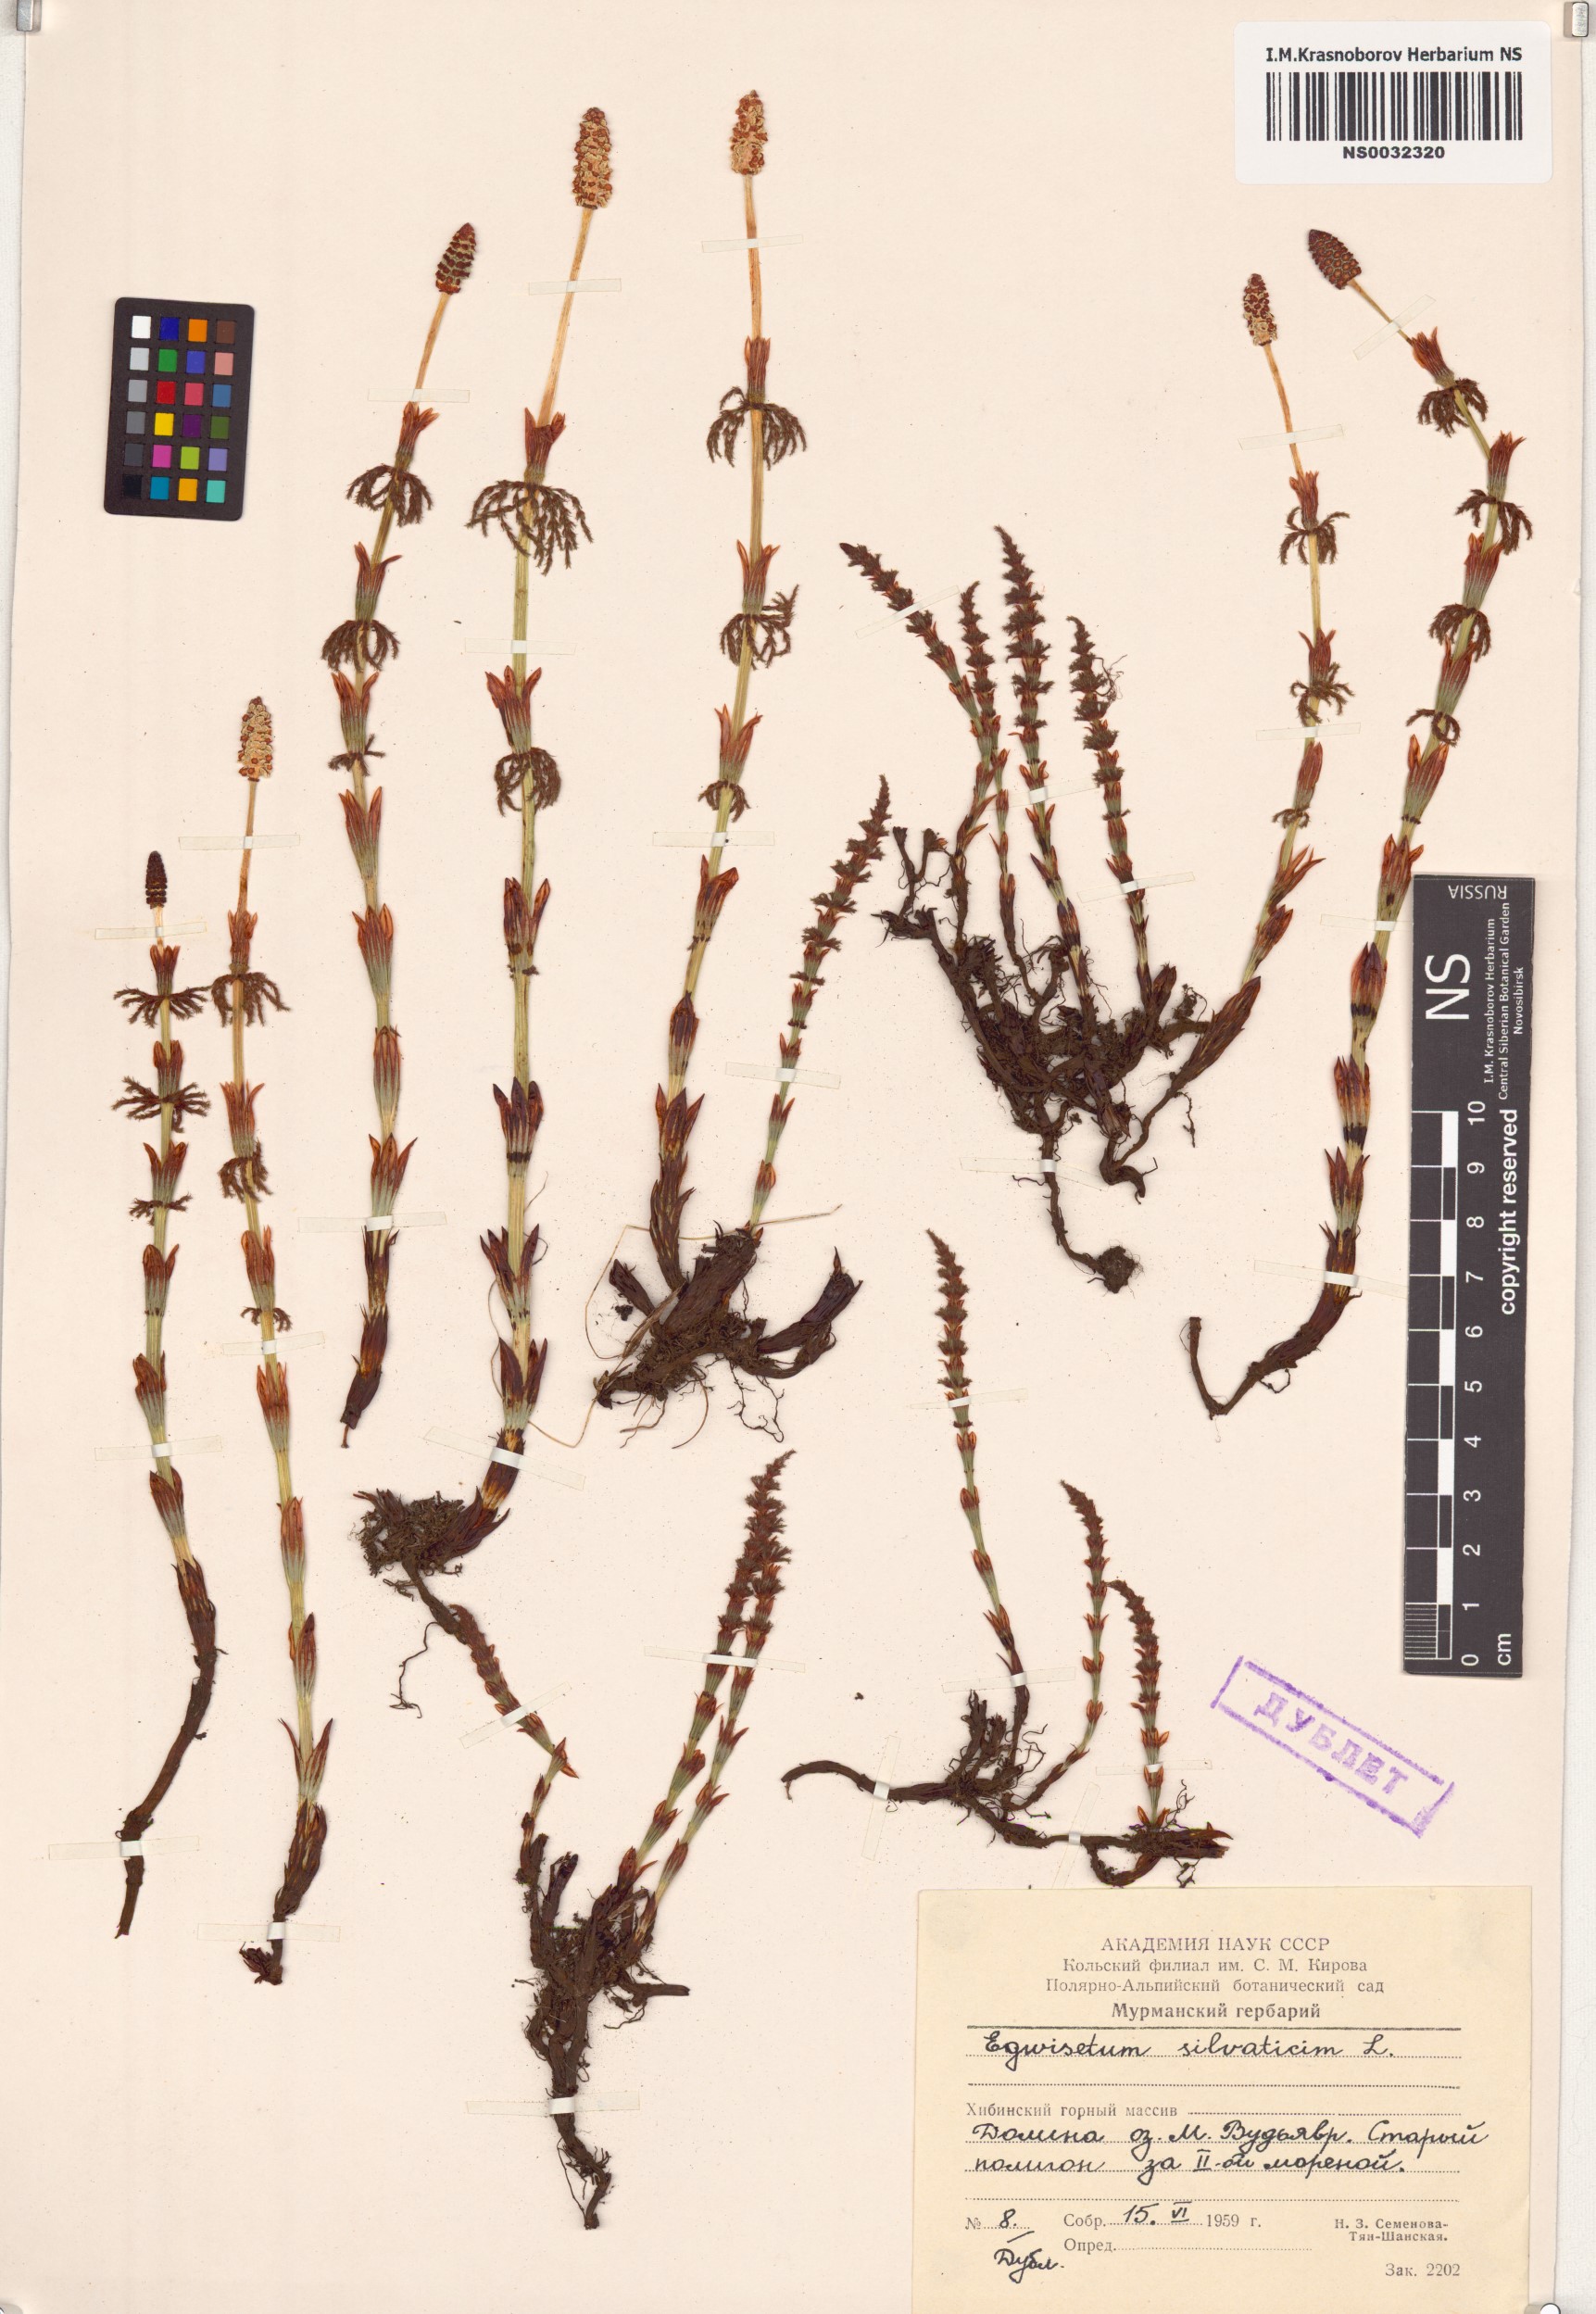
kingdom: Plantae
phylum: Tracheophyta
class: Polypodiopsida
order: Equisetales
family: Equisetaceae
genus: Equisetum
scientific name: Equisetum sylvaticum
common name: Wood horsetail
